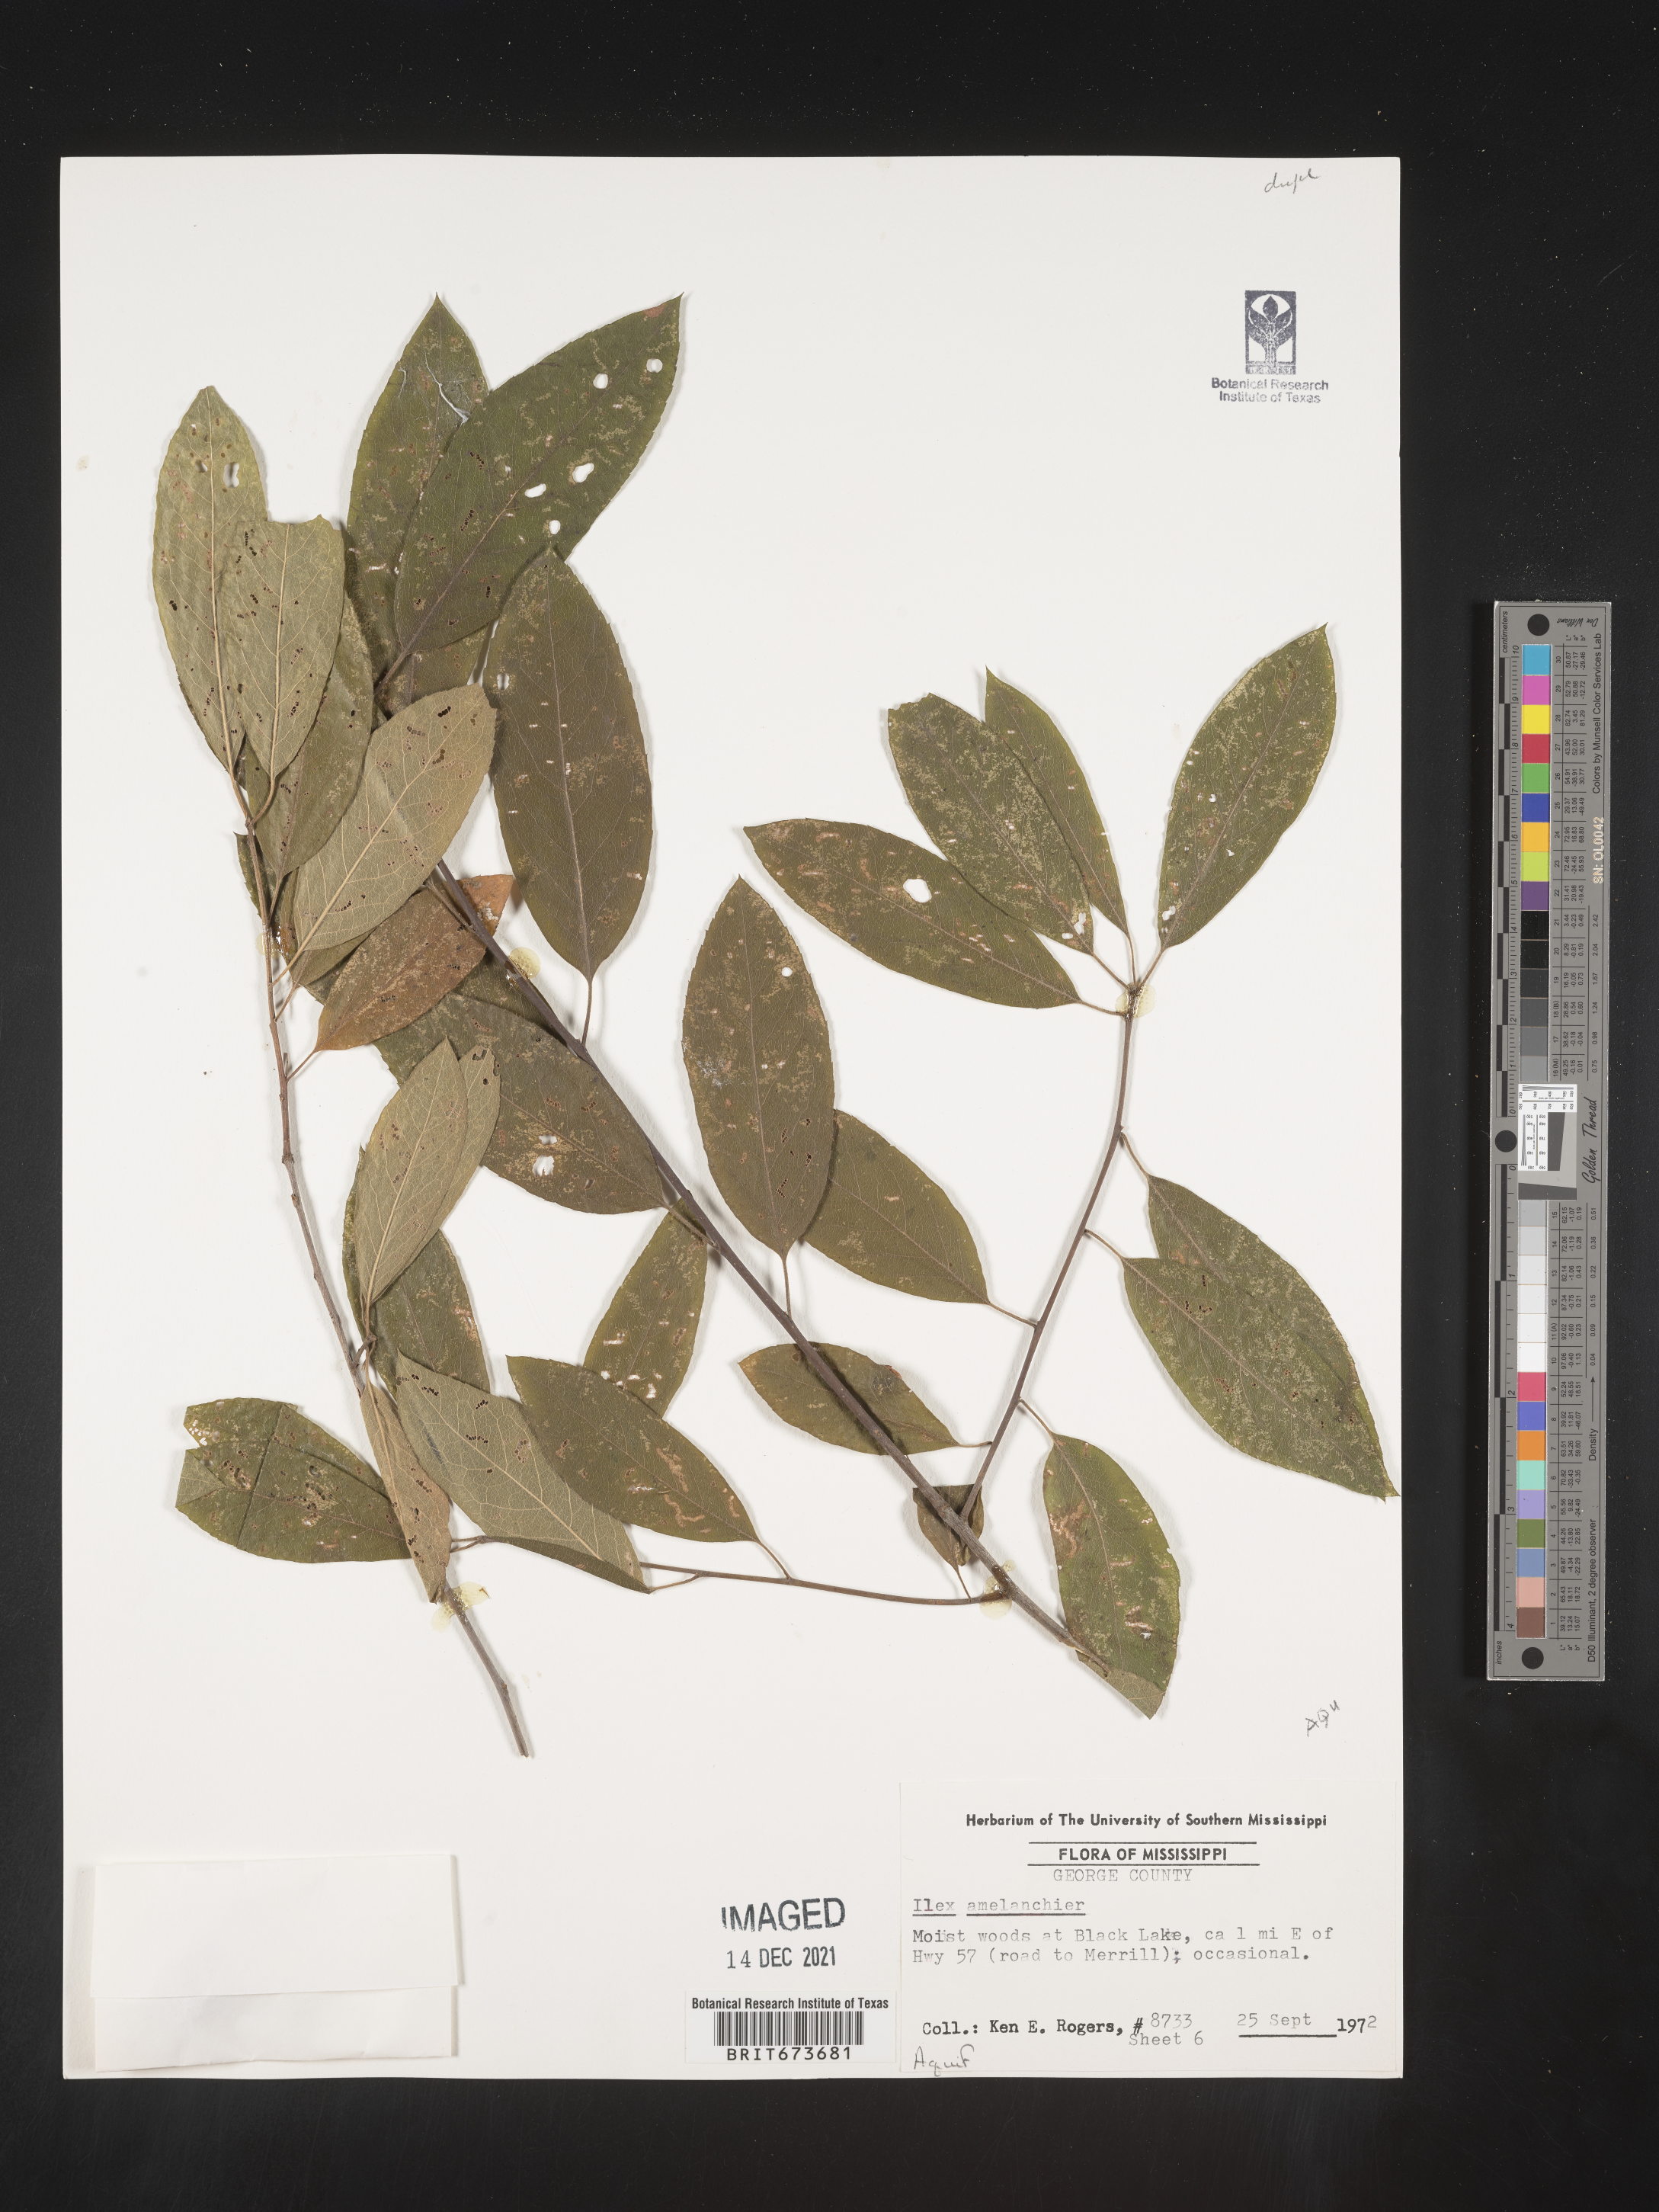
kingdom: Plantae
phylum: Tracheophyta
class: Magnoliopsida
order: Aquifoliales
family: Aquifoliaceae
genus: Ilex
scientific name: Ilex amelanchier
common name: Sarvis holly
